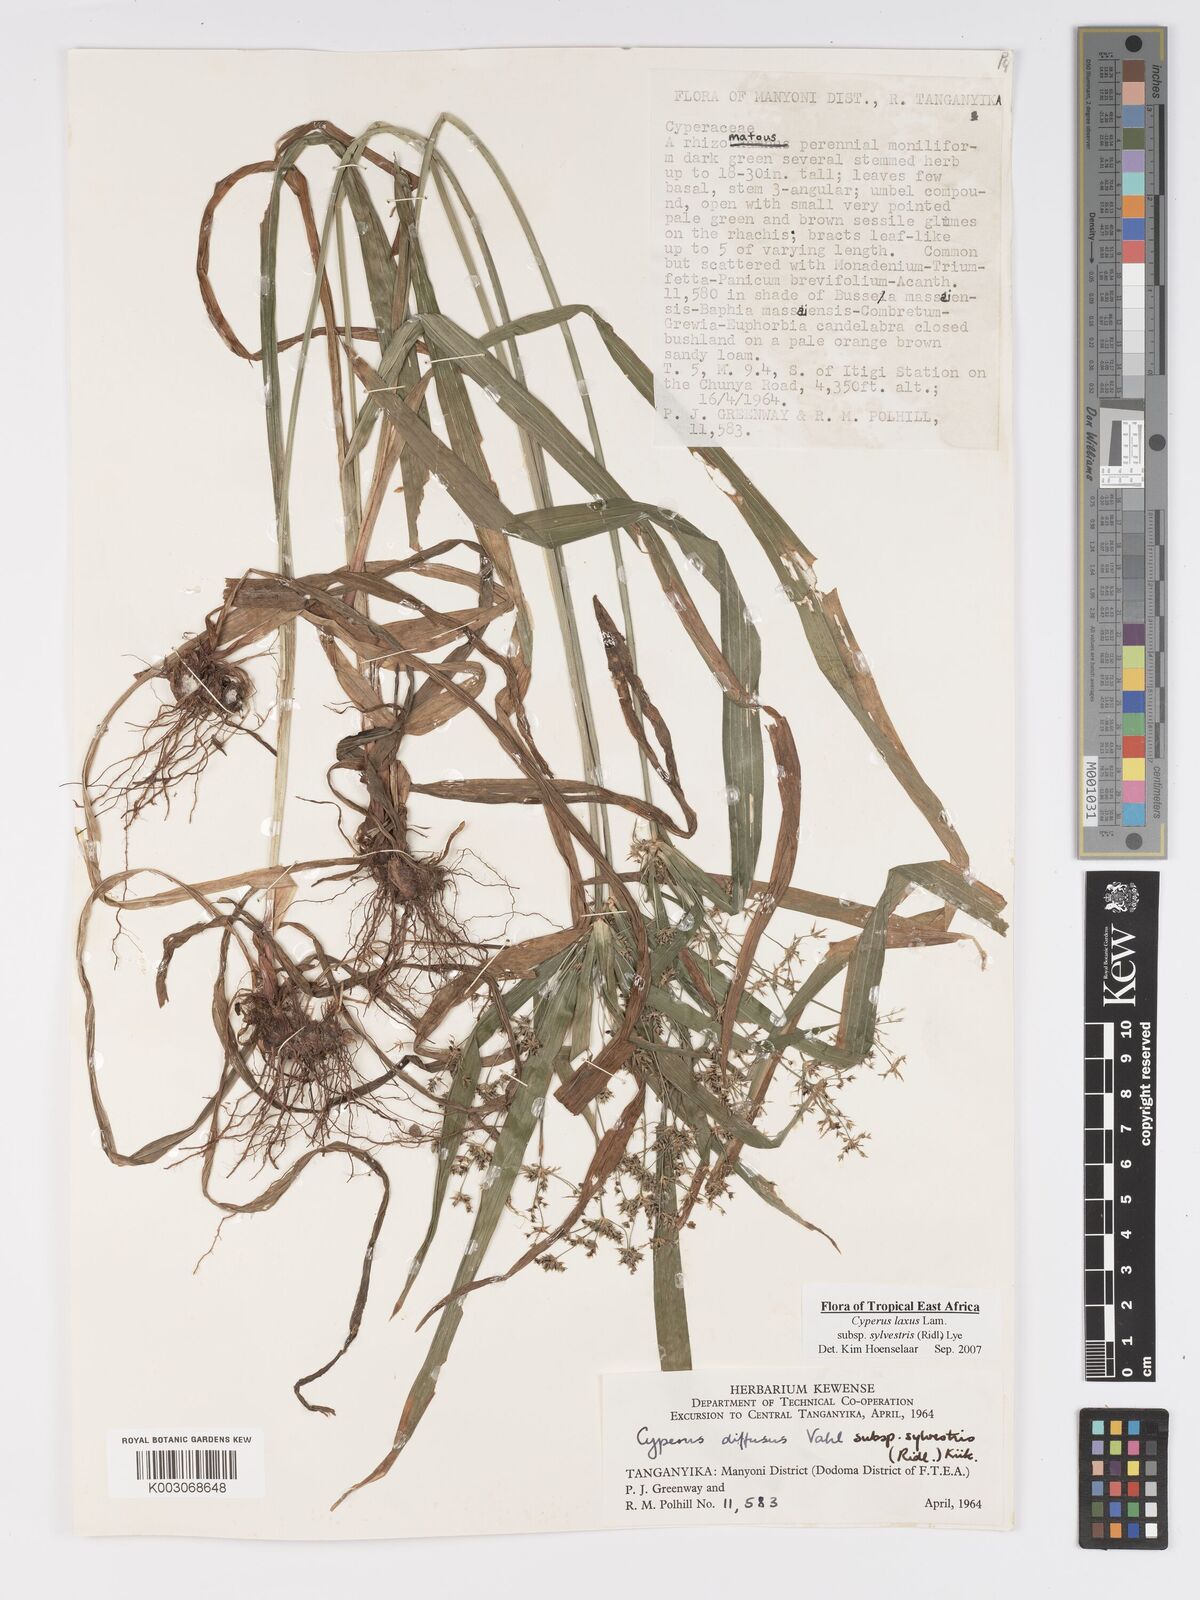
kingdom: Plantae
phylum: Tracheophyta
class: Liliopsida
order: Poales
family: Cyperaceae
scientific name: Cyperaceae
